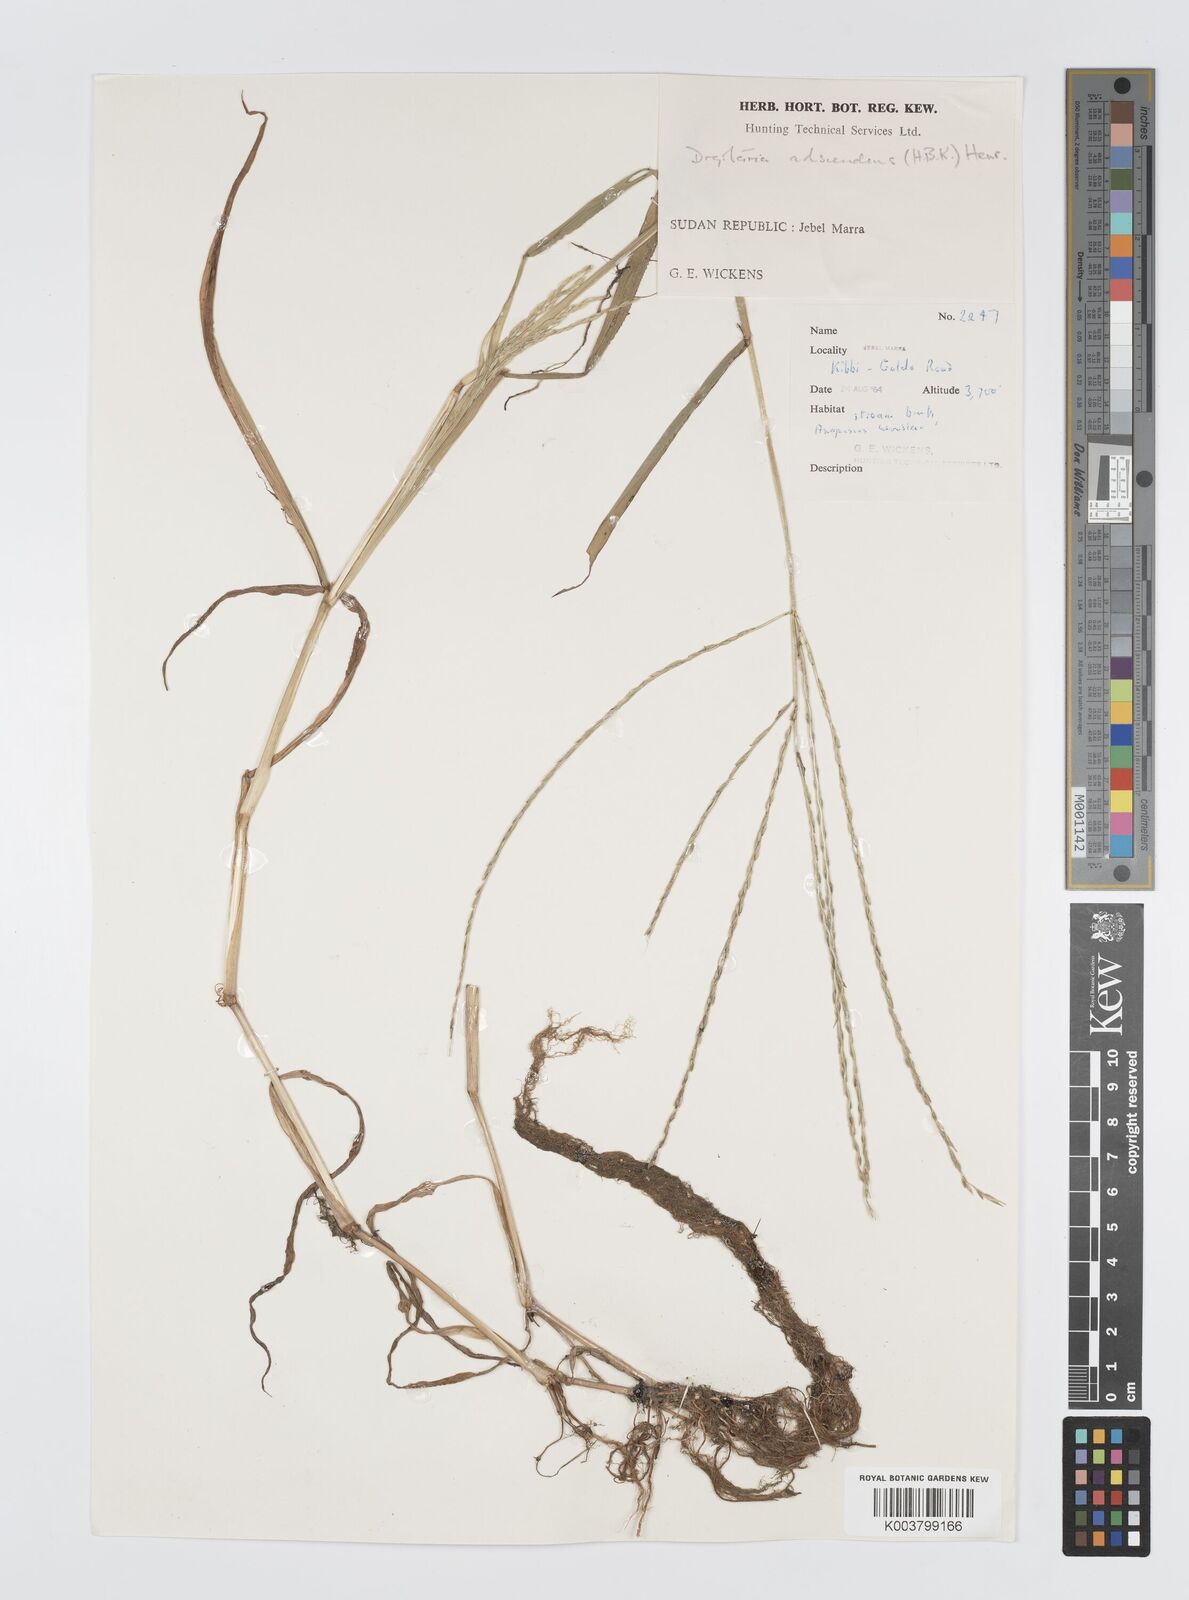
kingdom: Plantae
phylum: Tracheophyta
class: Liliopsida
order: Poales
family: Poaceae
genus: Digitaria
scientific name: Digitaria acuminatissima
